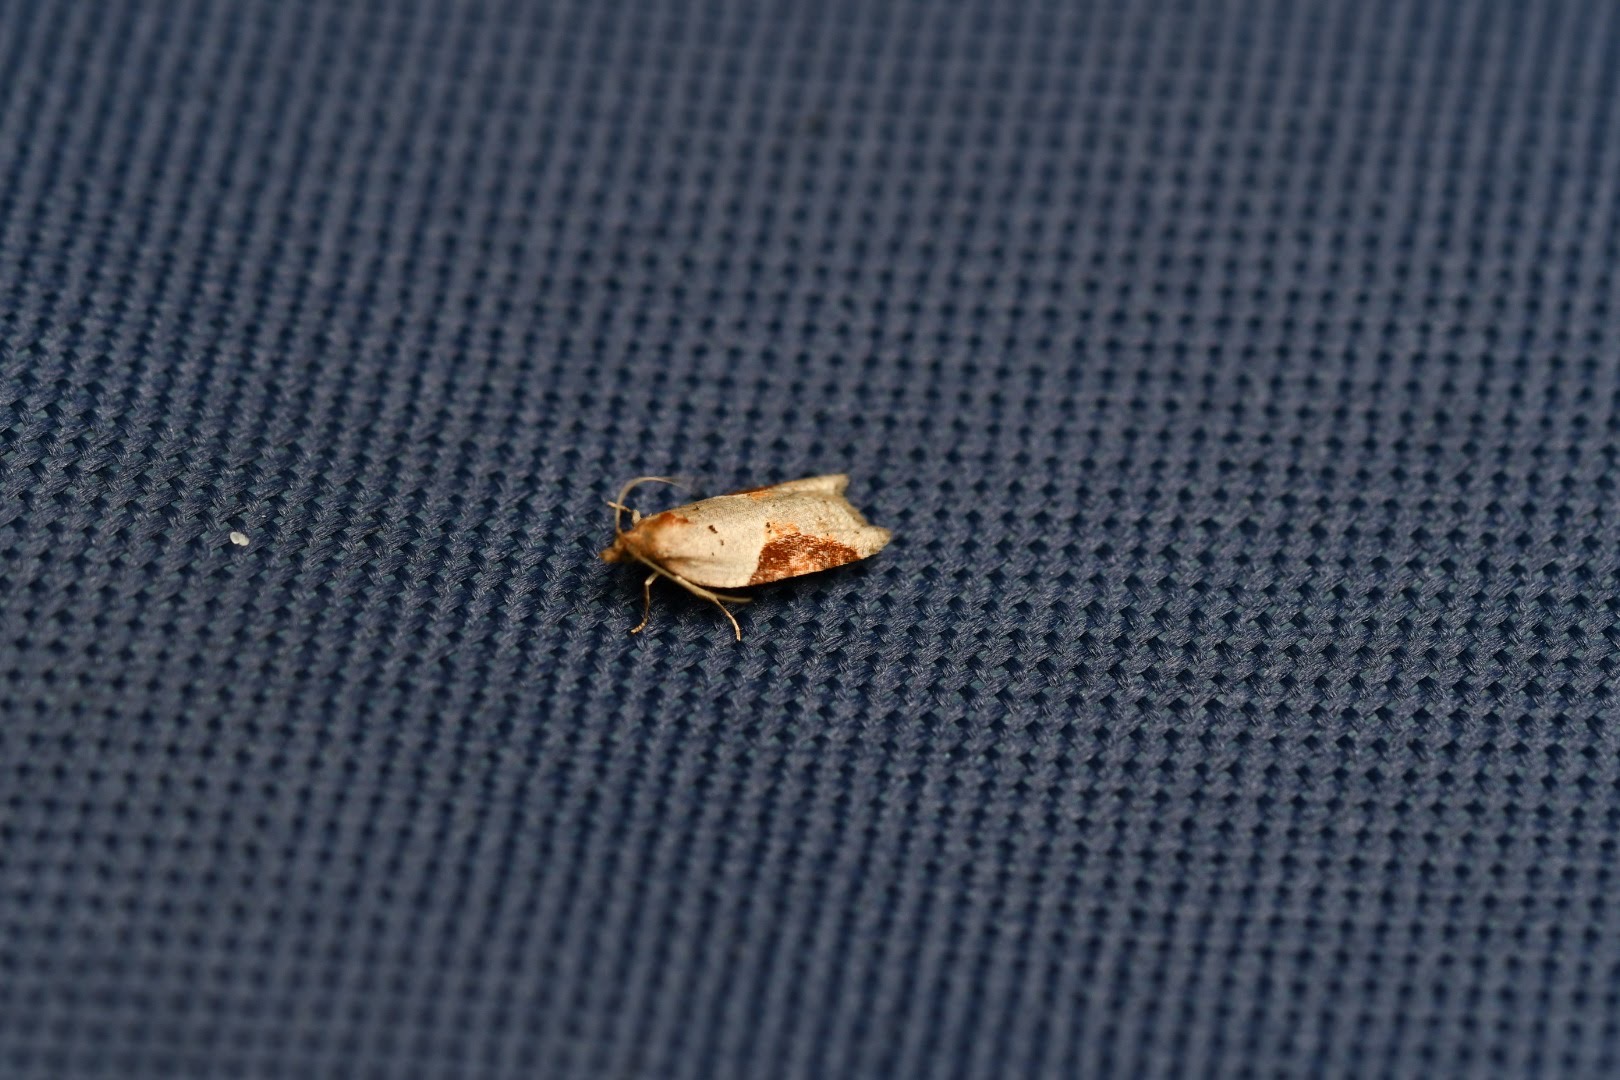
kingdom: Animalia
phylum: Arthropoda
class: Insecta
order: Lepidoptera
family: Tortricidae
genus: Acleris
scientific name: Acleris laterana
